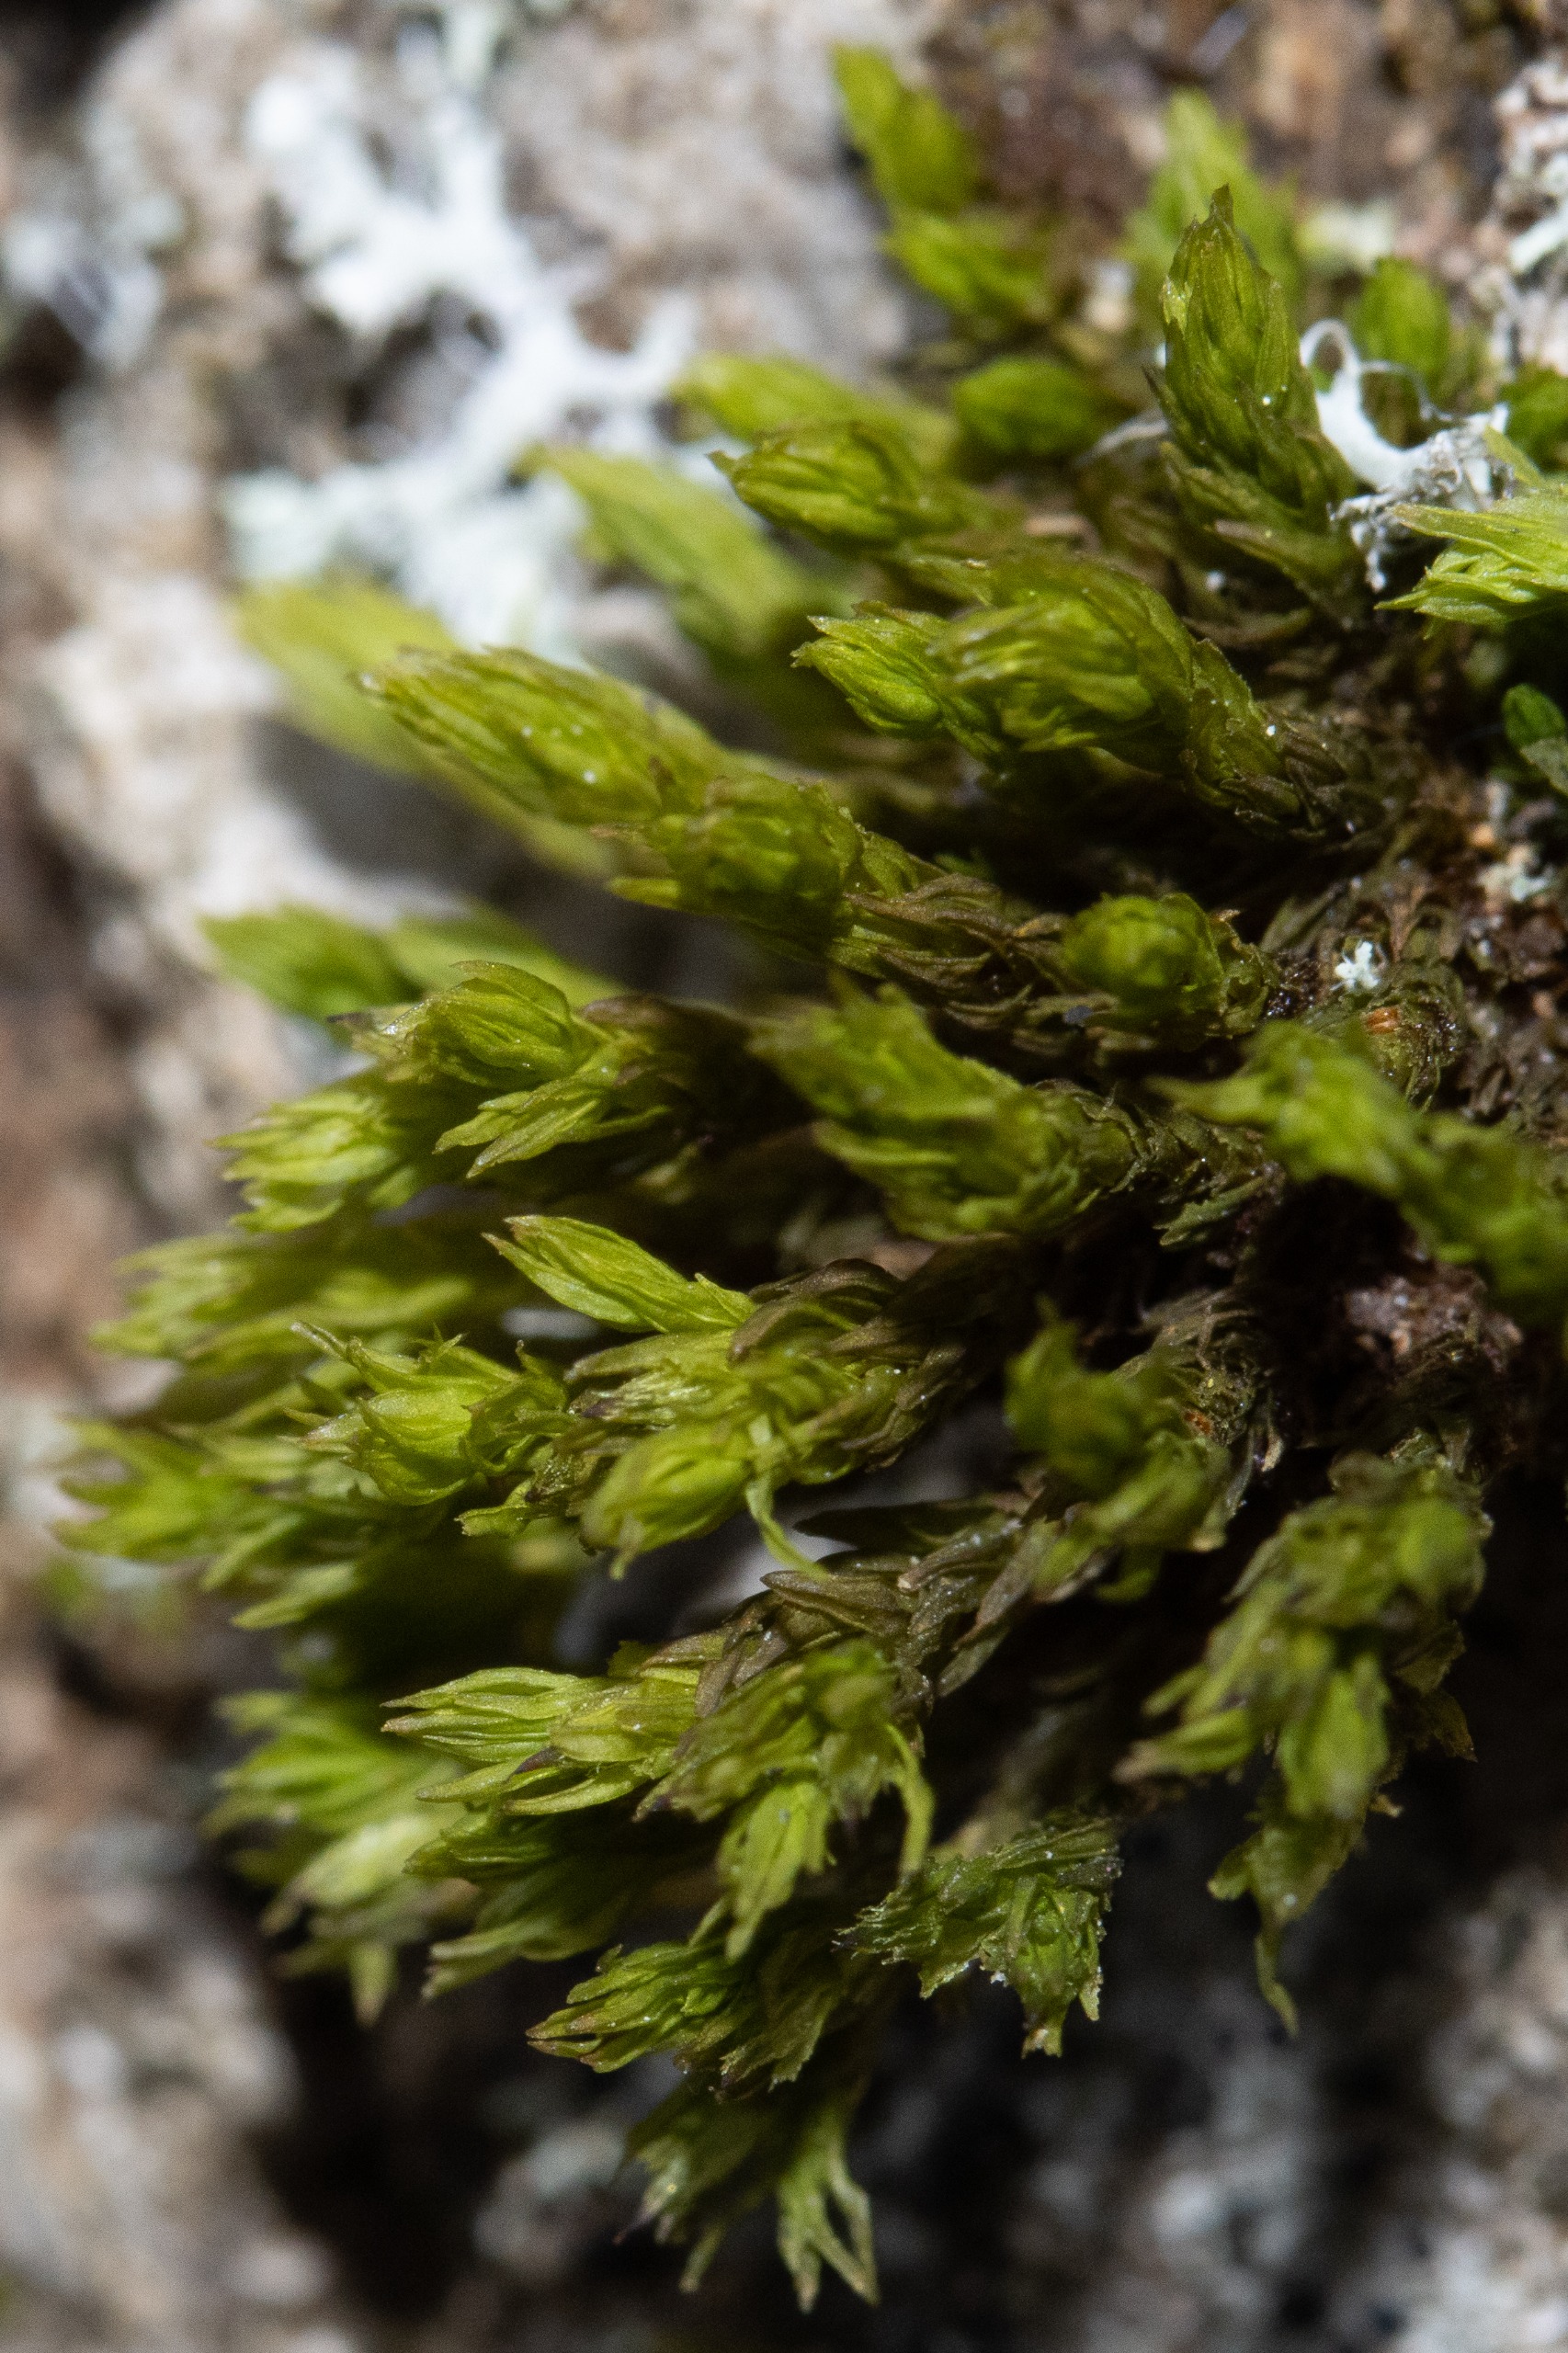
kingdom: Plantae
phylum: Bryophyta
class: Bryopsida
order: Orthotrichales
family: Orthotrichaceae
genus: Orthotrichum
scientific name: Orthotrichum
